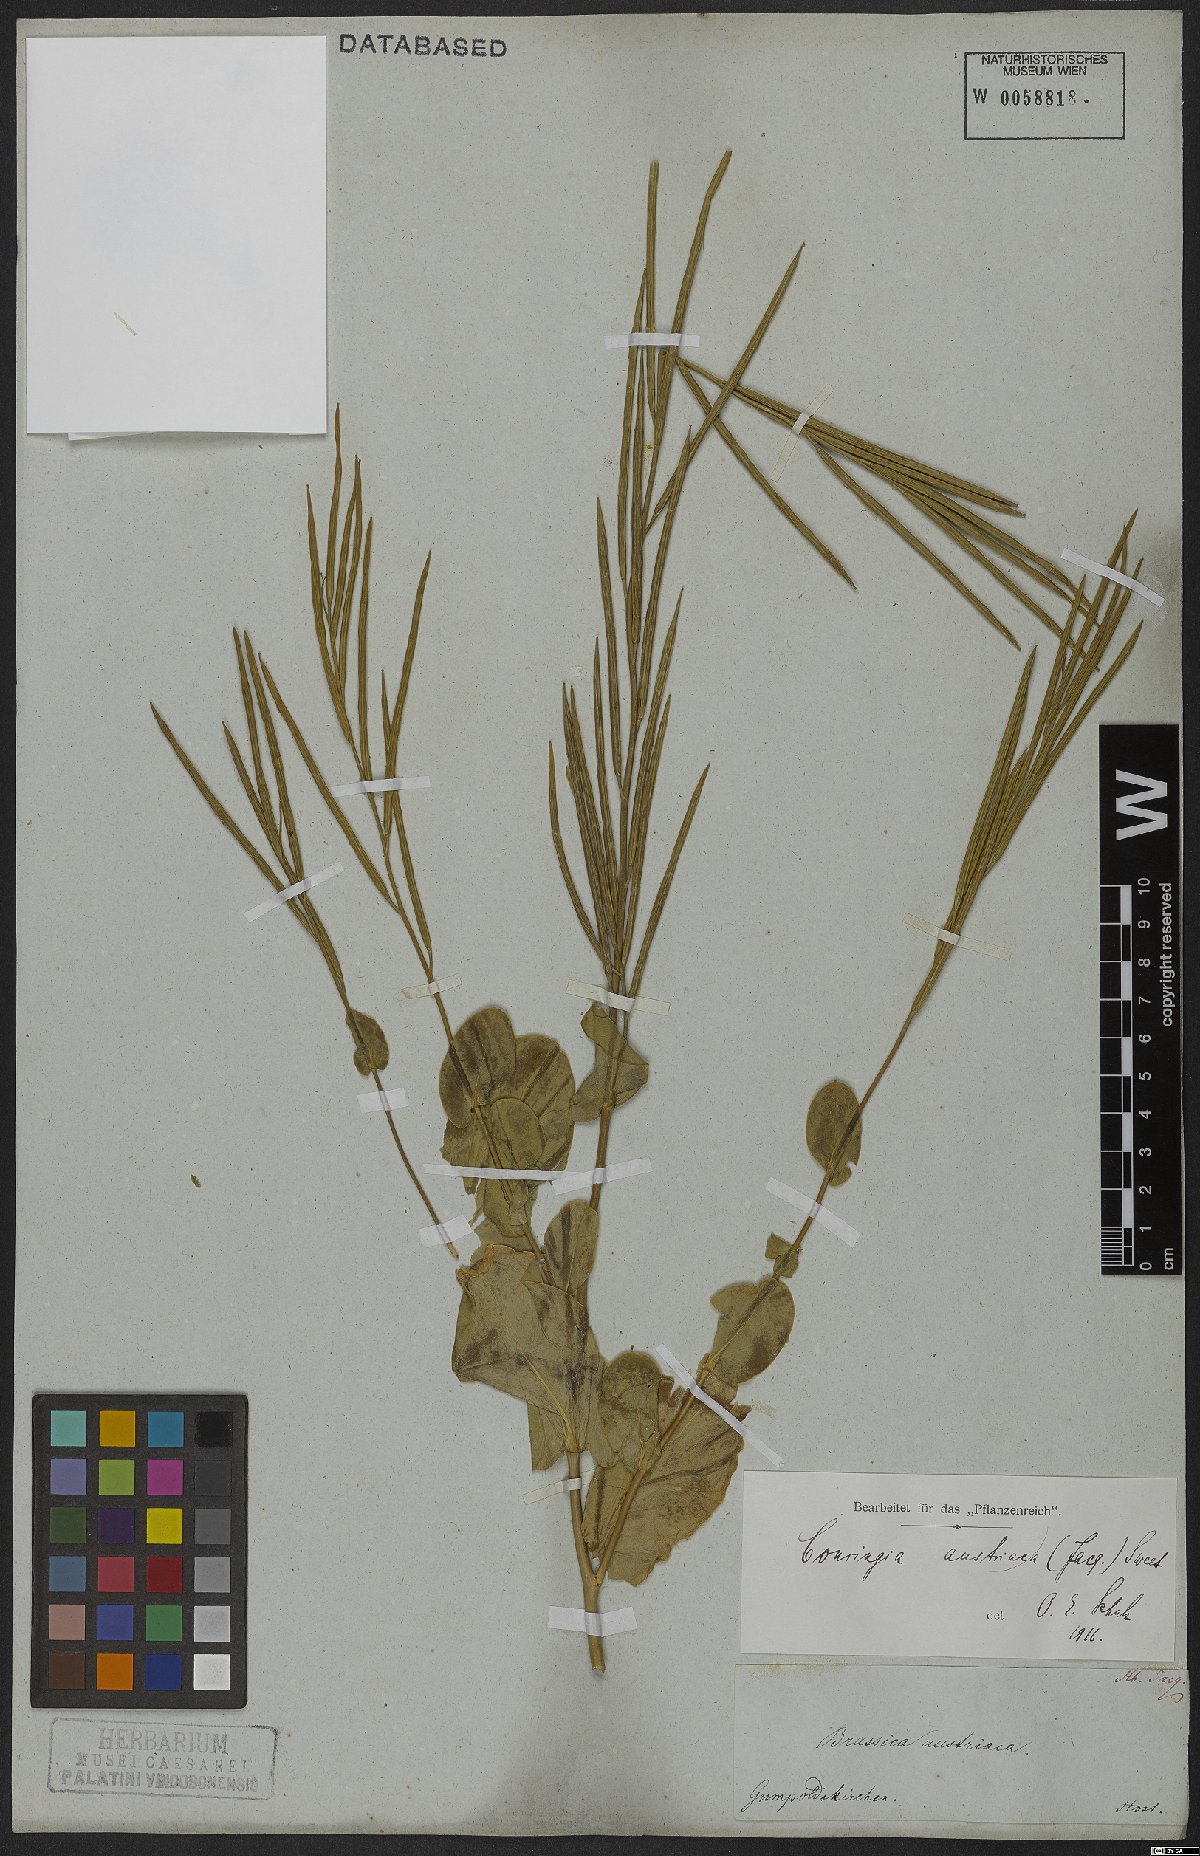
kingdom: Plantae
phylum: Tracheophyta
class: Magnoliopsida
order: Brassicales
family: Brassicaceae
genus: Conringia
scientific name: Conringia austriaca
